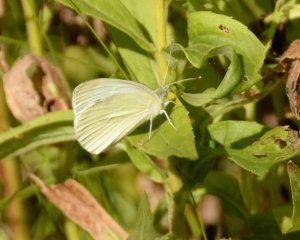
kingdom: Animalia
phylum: Arthropoda
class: Insecta
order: Lepidoptera
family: Pieridae
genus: Pieris
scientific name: Pieris rapae
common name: Cabbage White
